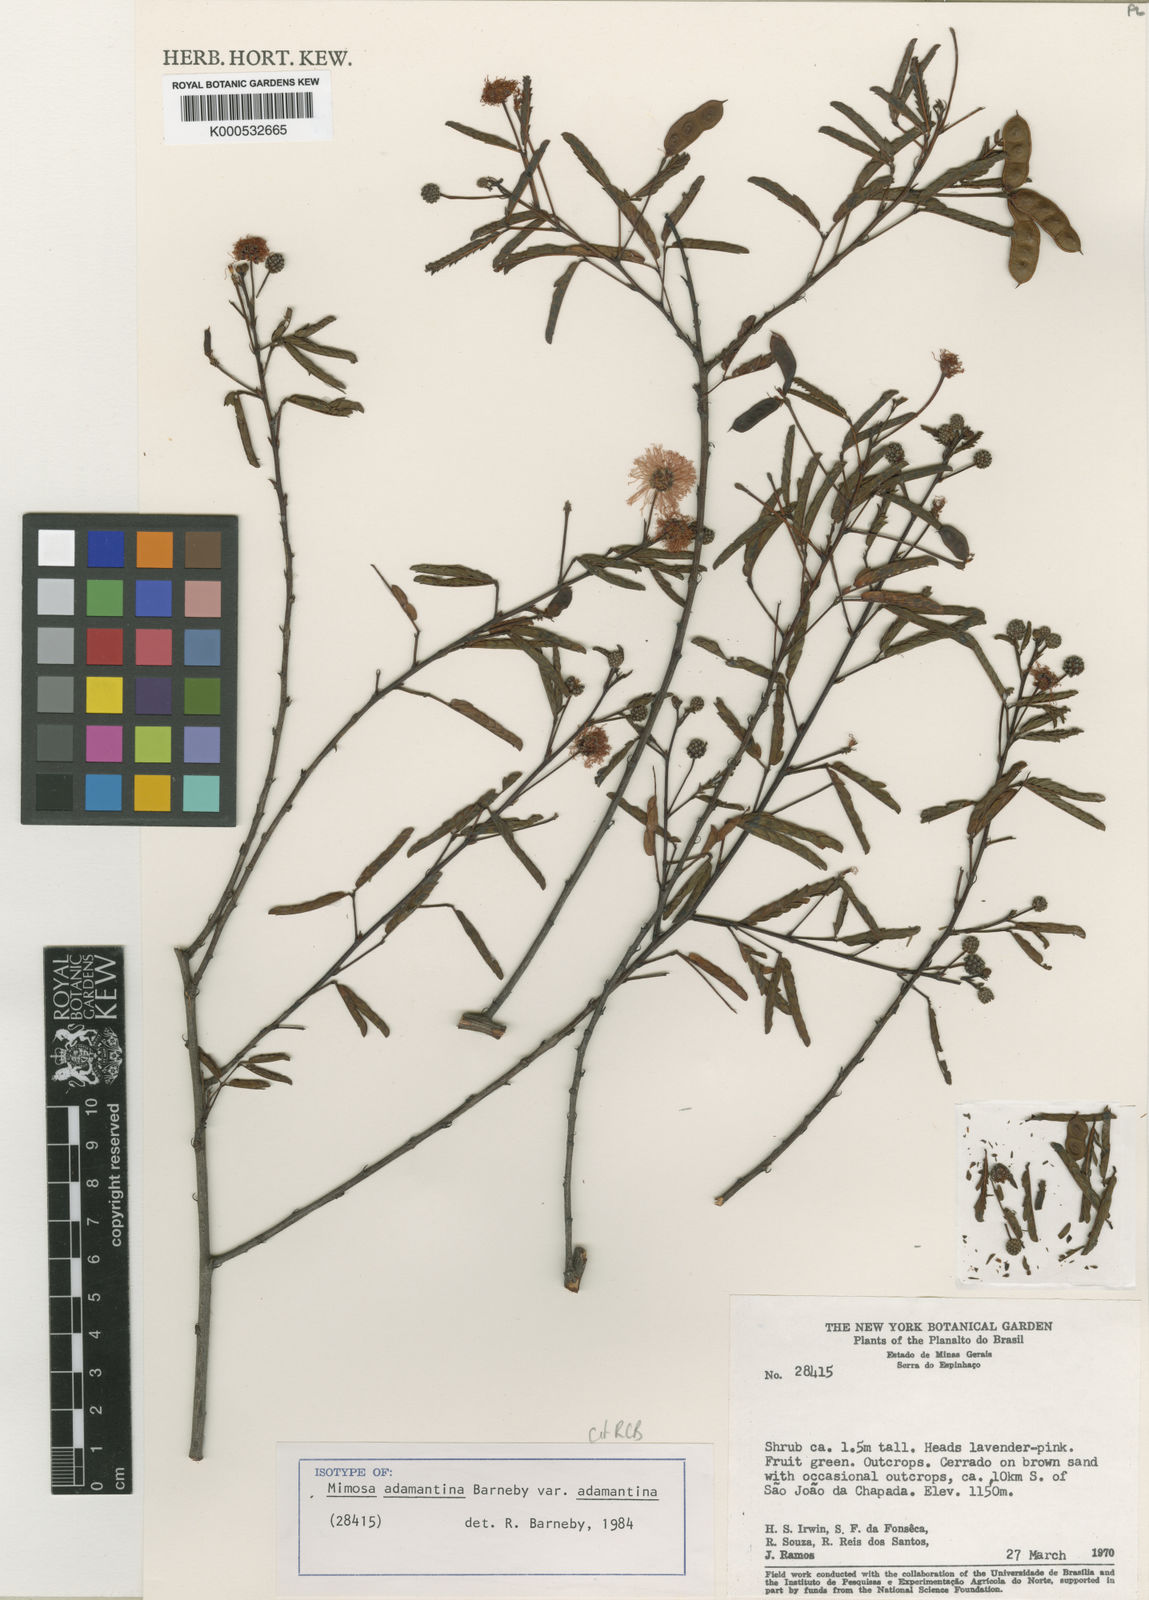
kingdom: Plantae
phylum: Tracheophyta
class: Magnoliopsida
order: Fabales
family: Fabaceae
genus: Mimosa
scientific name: Mimosa adamantina
